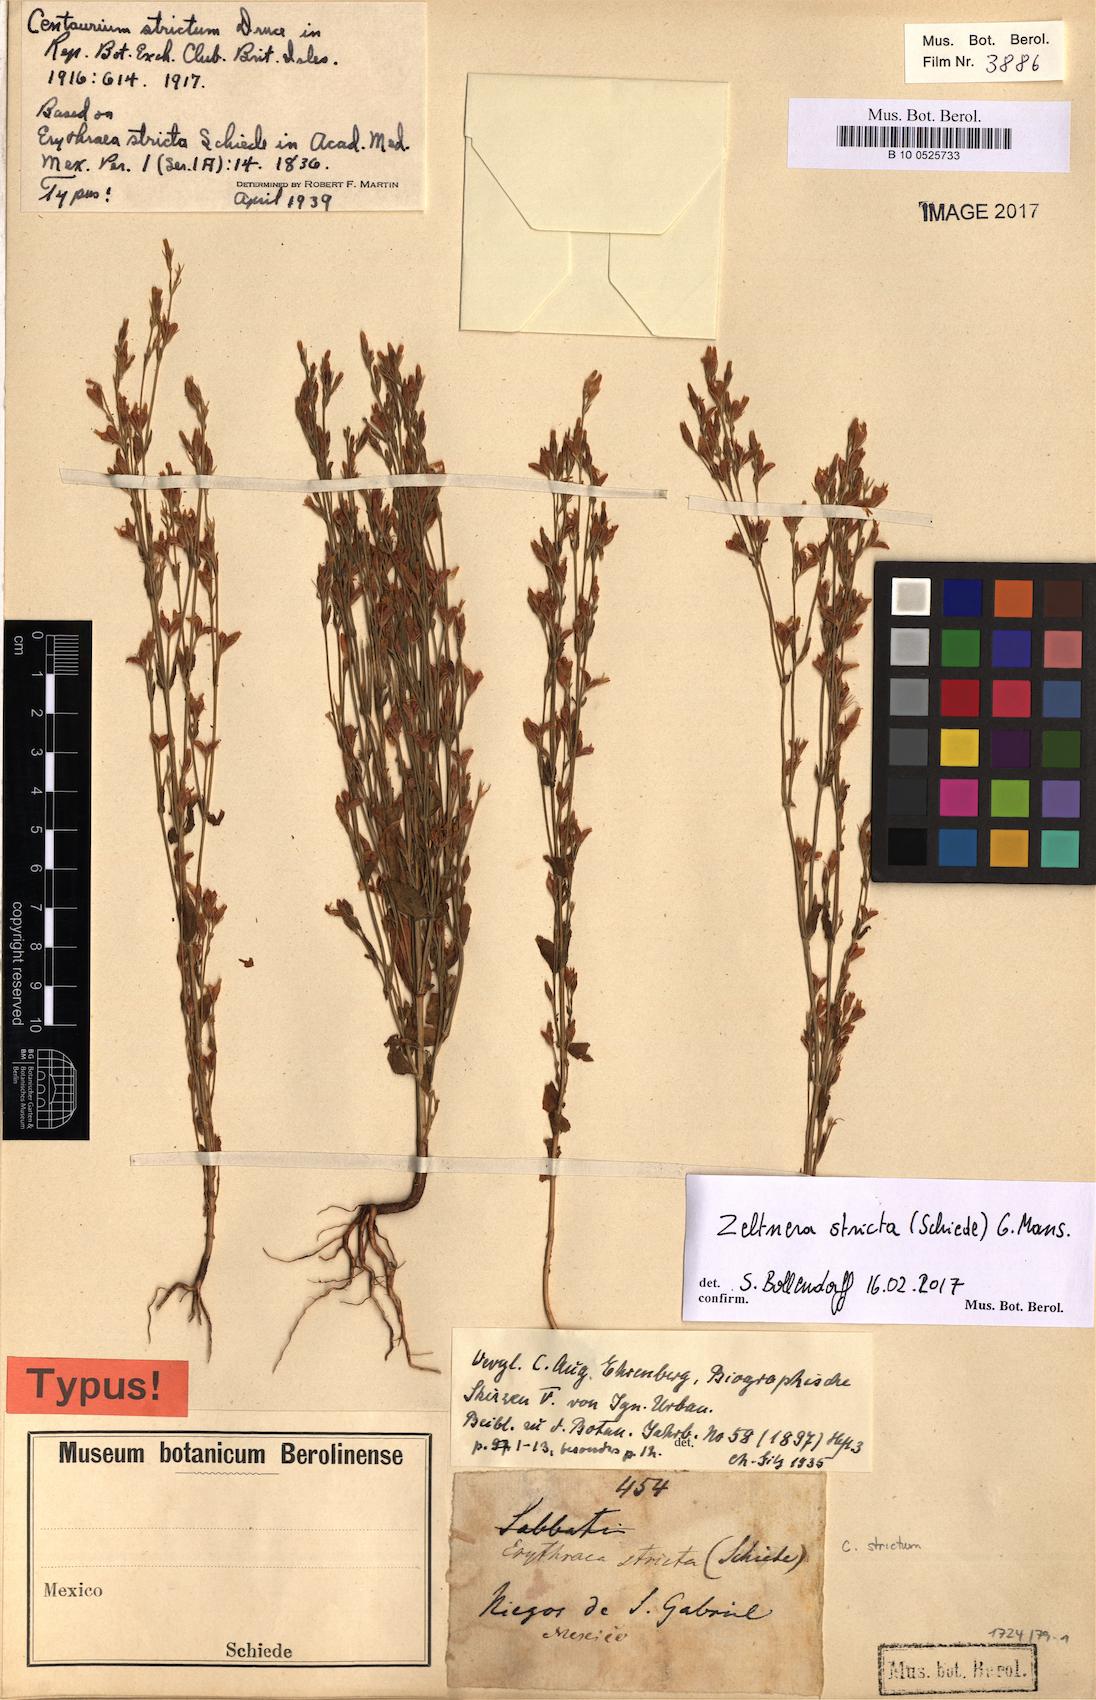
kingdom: Plantae
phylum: Tracheophyta
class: Magnoliopsida
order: Gentianales
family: Gentianaceae
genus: Zeltnera
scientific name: Zeltnera stricta
